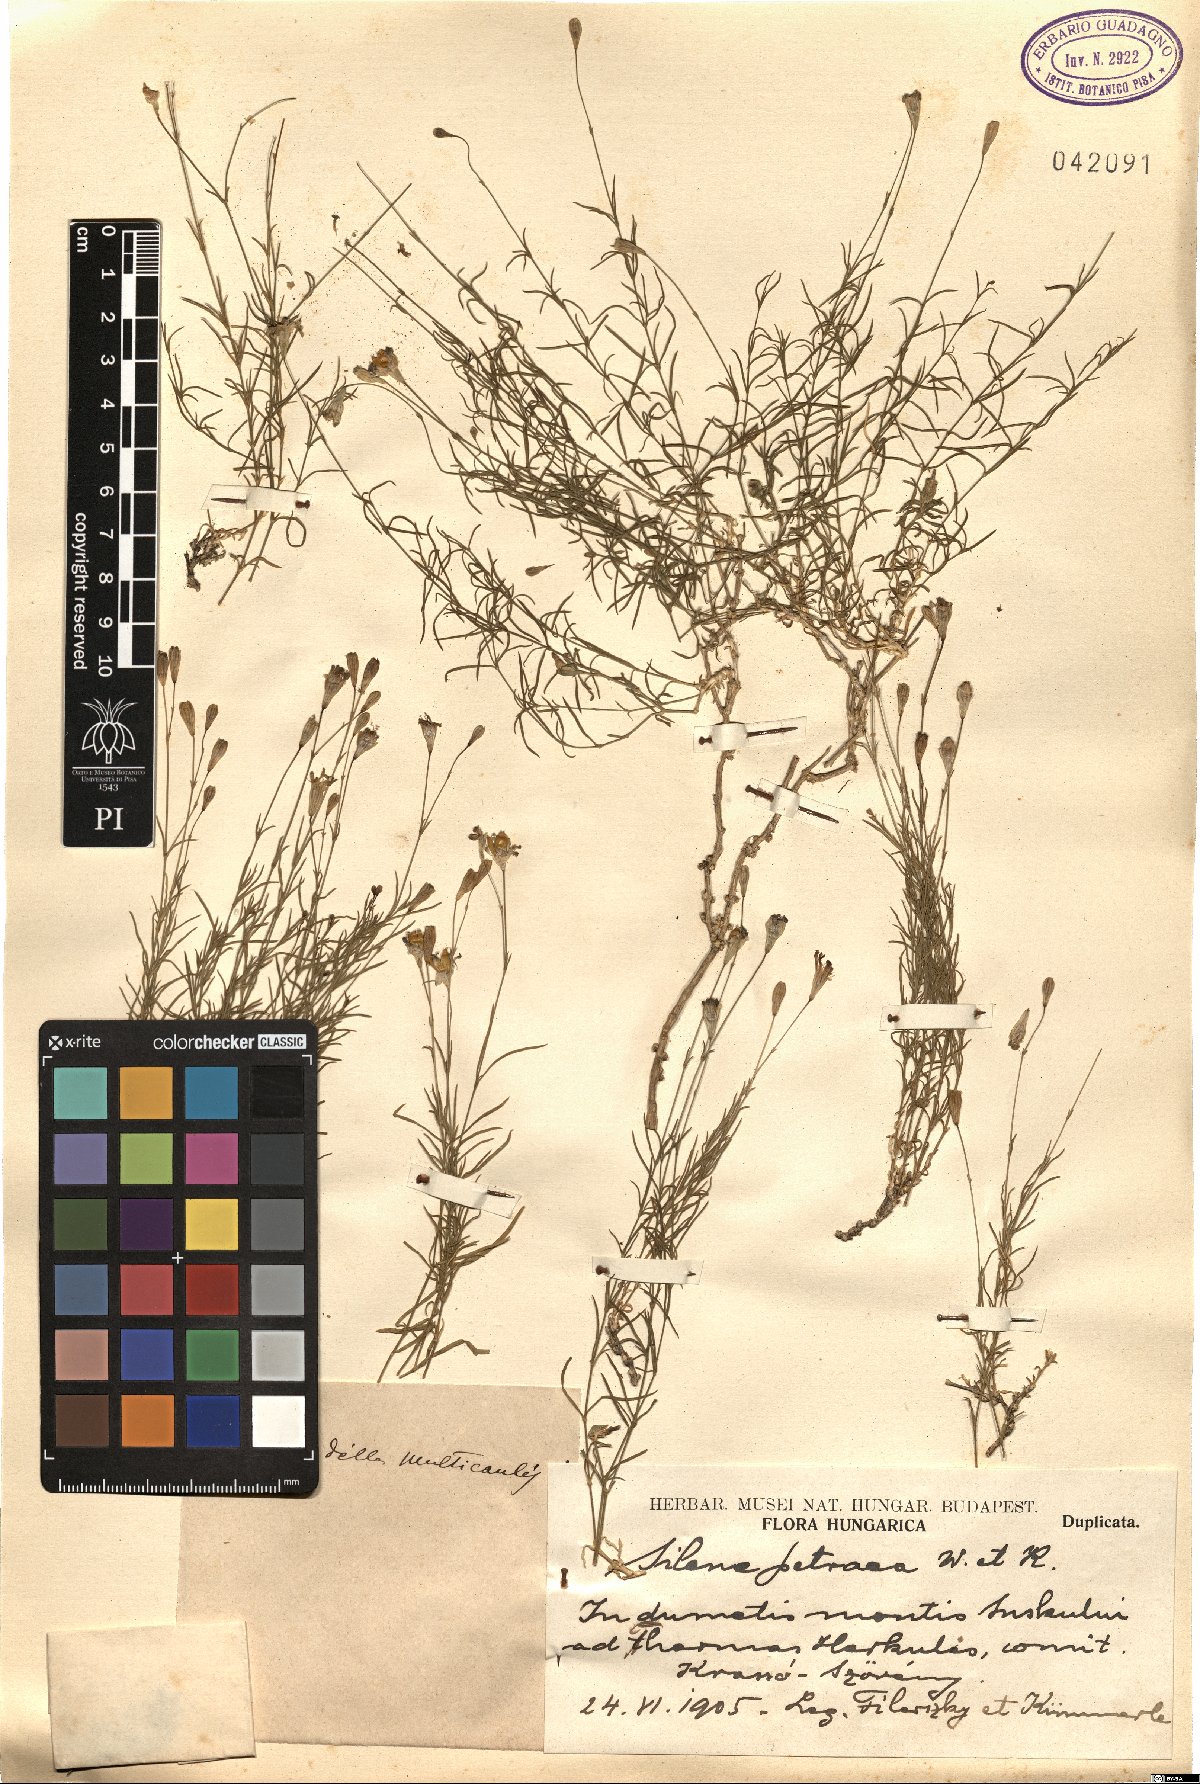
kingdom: Plantae
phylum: Tracheophyta
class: Magnoliopsida
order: Caryophyllales
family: Caryophyllaceae
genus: Silene
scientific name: Silene saxifraga
